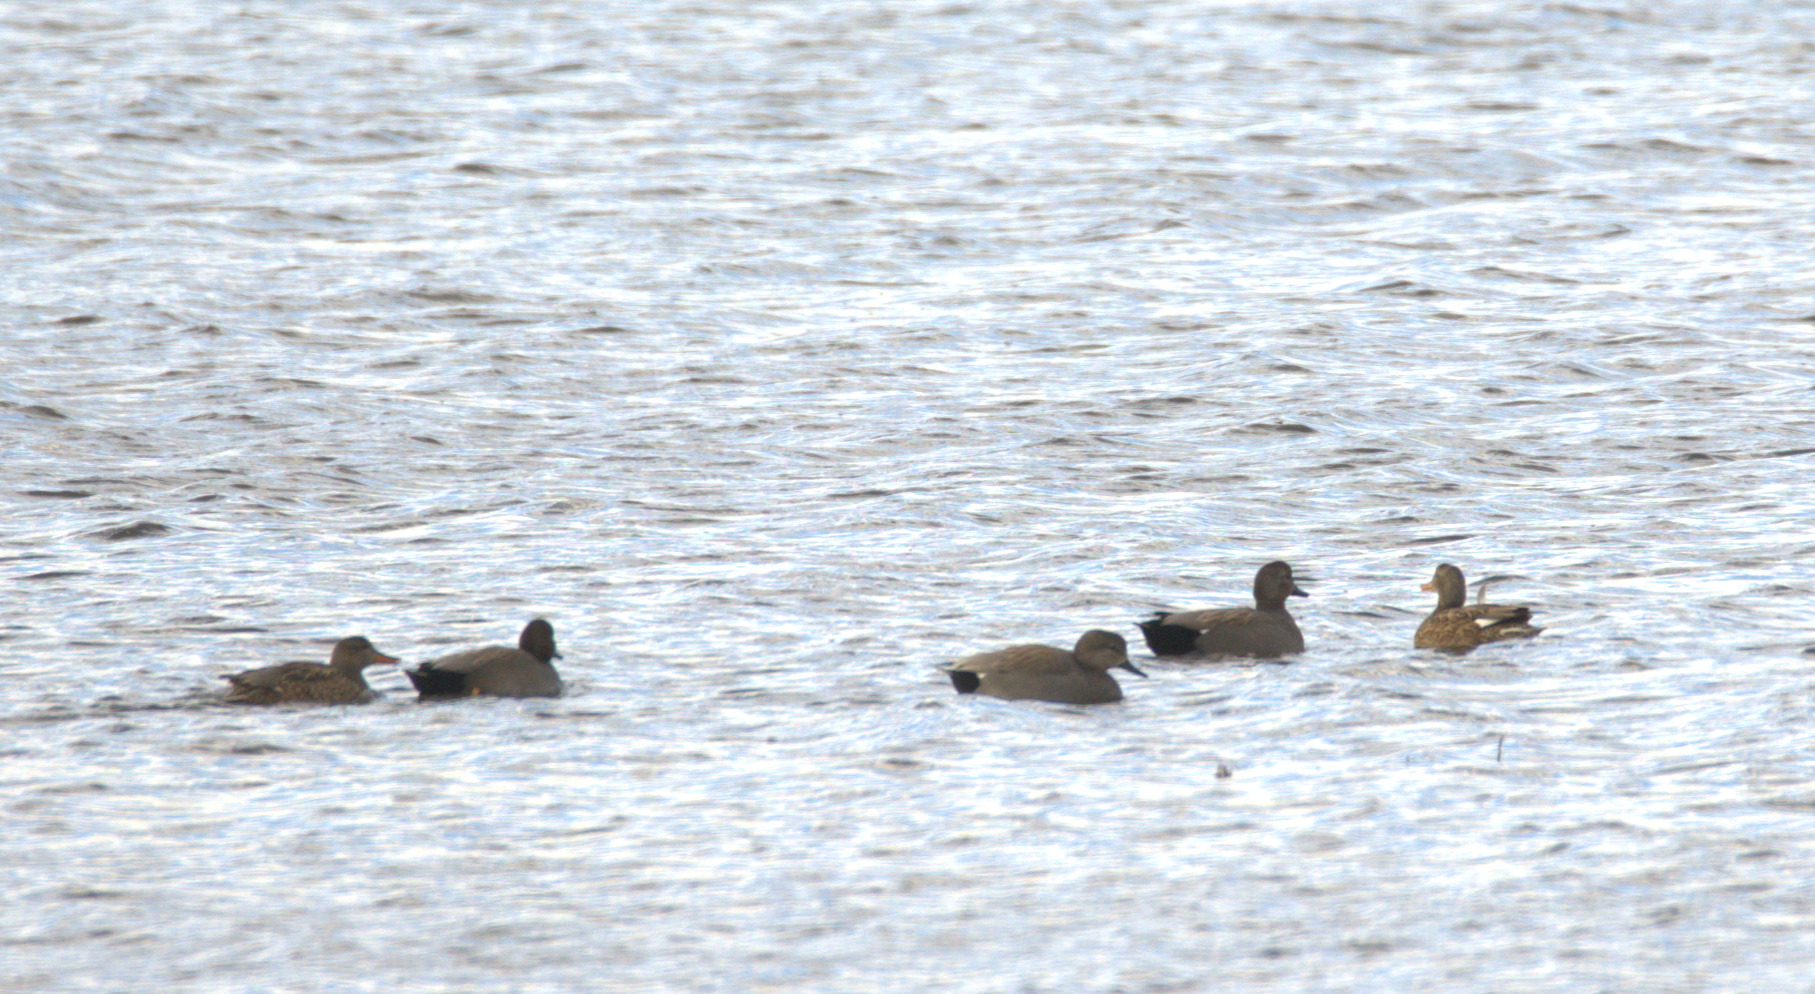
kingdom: Animalia
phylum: Chordata
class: Aves
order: Anseriformes
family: Anatidae
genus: Mareca
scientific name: Mareca strepera
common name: Knarand
